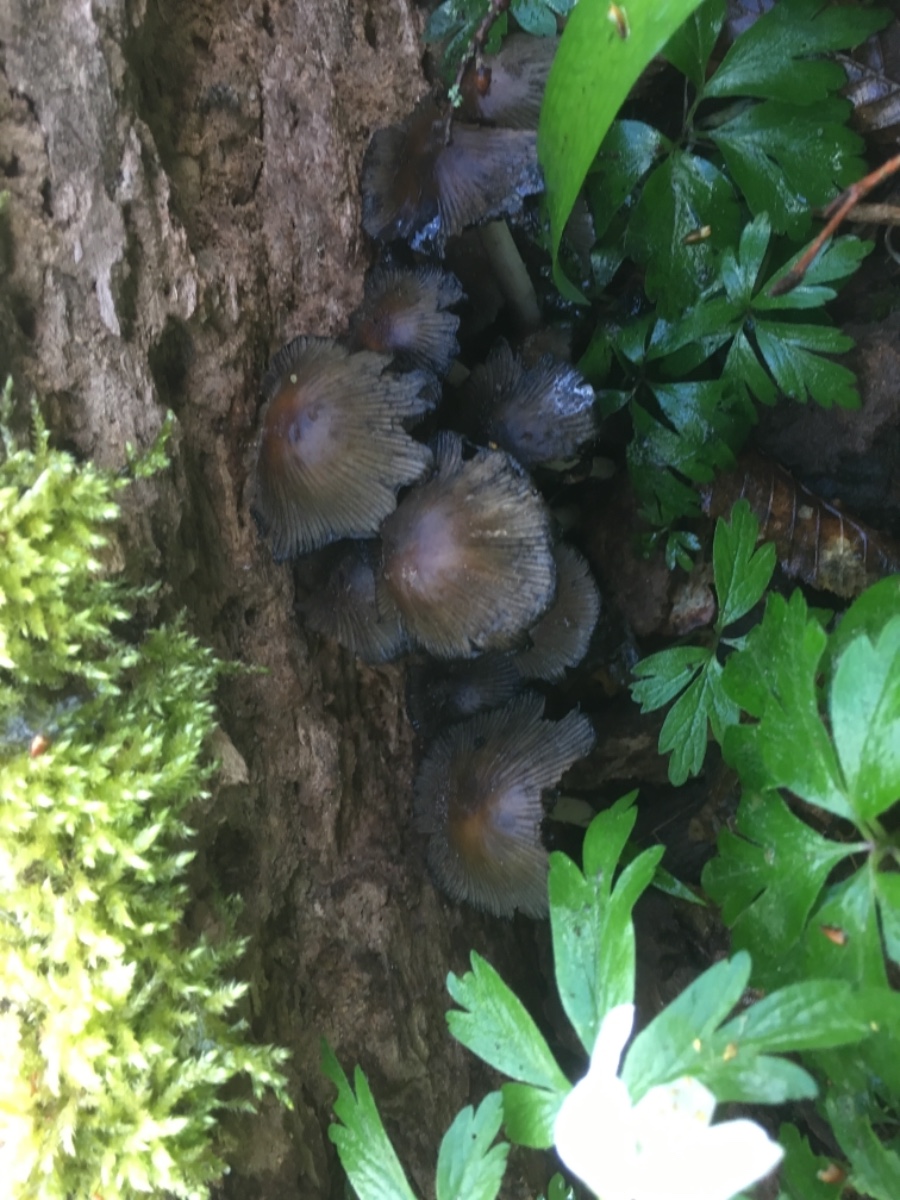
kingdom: Fungi
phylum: Basidiomycota
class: Agaricomycetes
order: Agaricales
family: Psathyrellaceae
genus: Coprinellus
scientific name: Coprinellus micaceus
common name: glimmer-blækhat
